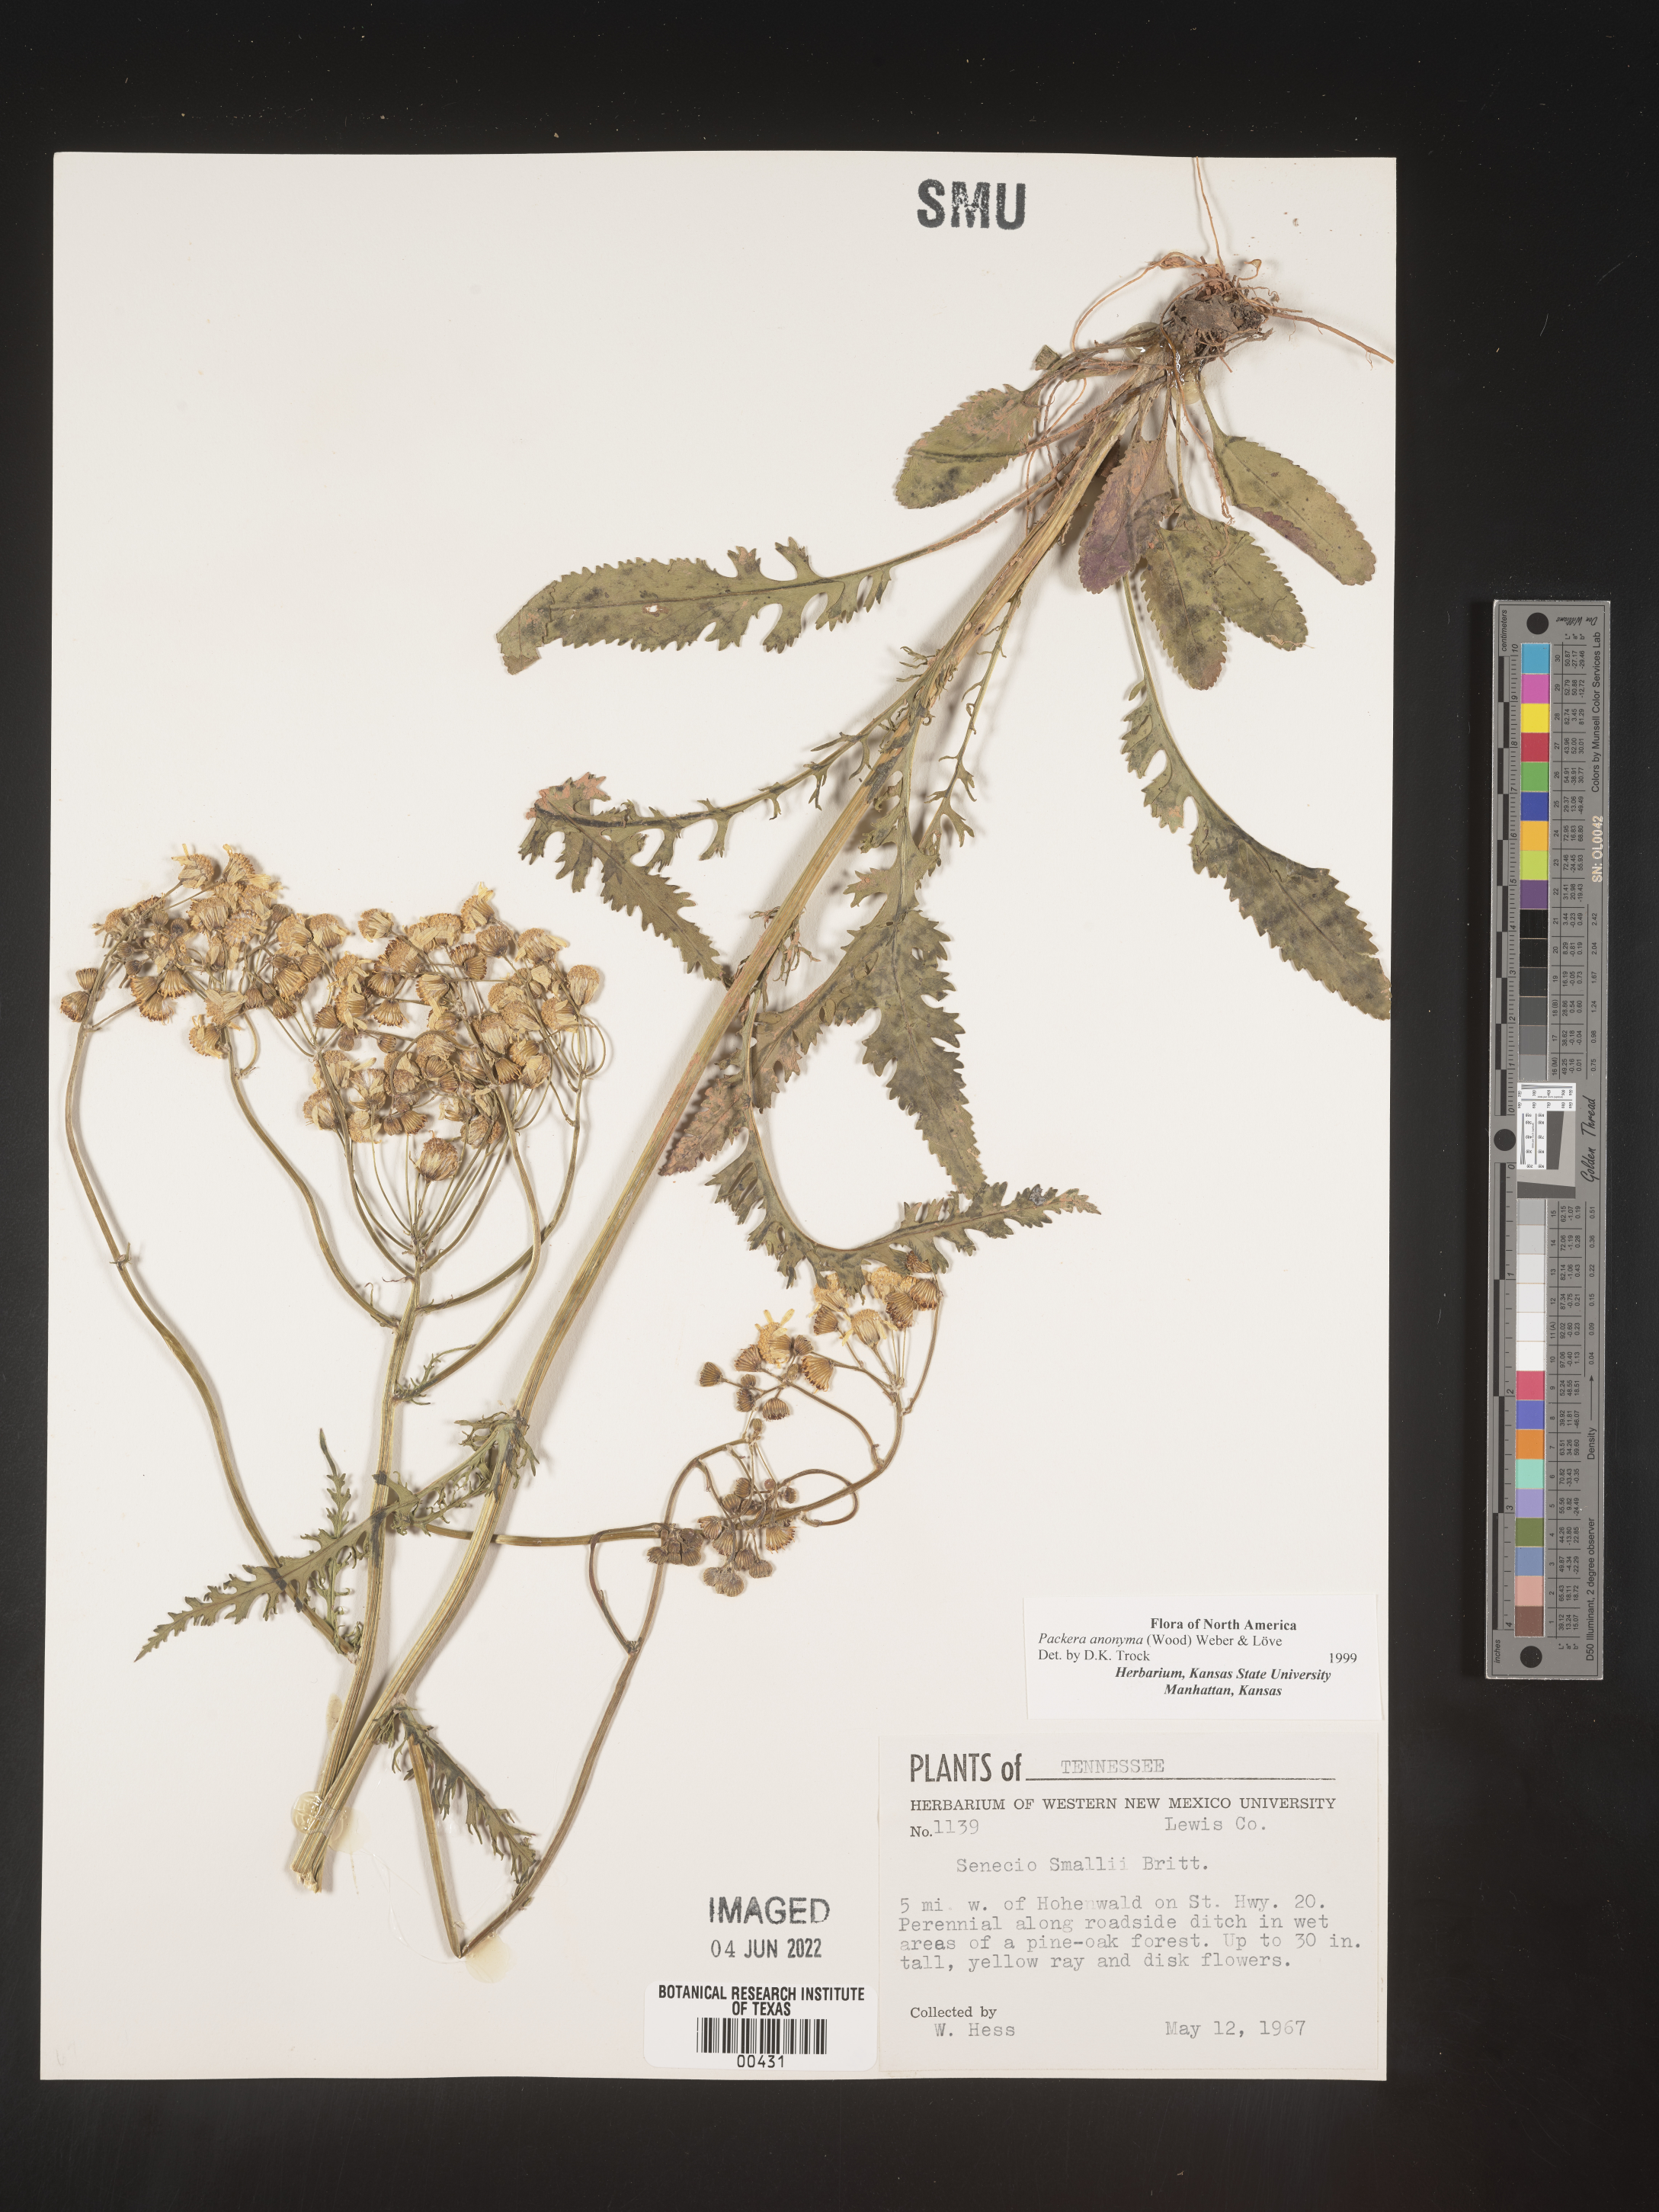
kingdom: Plantae
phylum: Tracheophyta
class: Magnoliopsida
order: Asterales
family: Asteraceae
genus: Packera
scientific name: Packera anonyma
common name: Small ragwort
